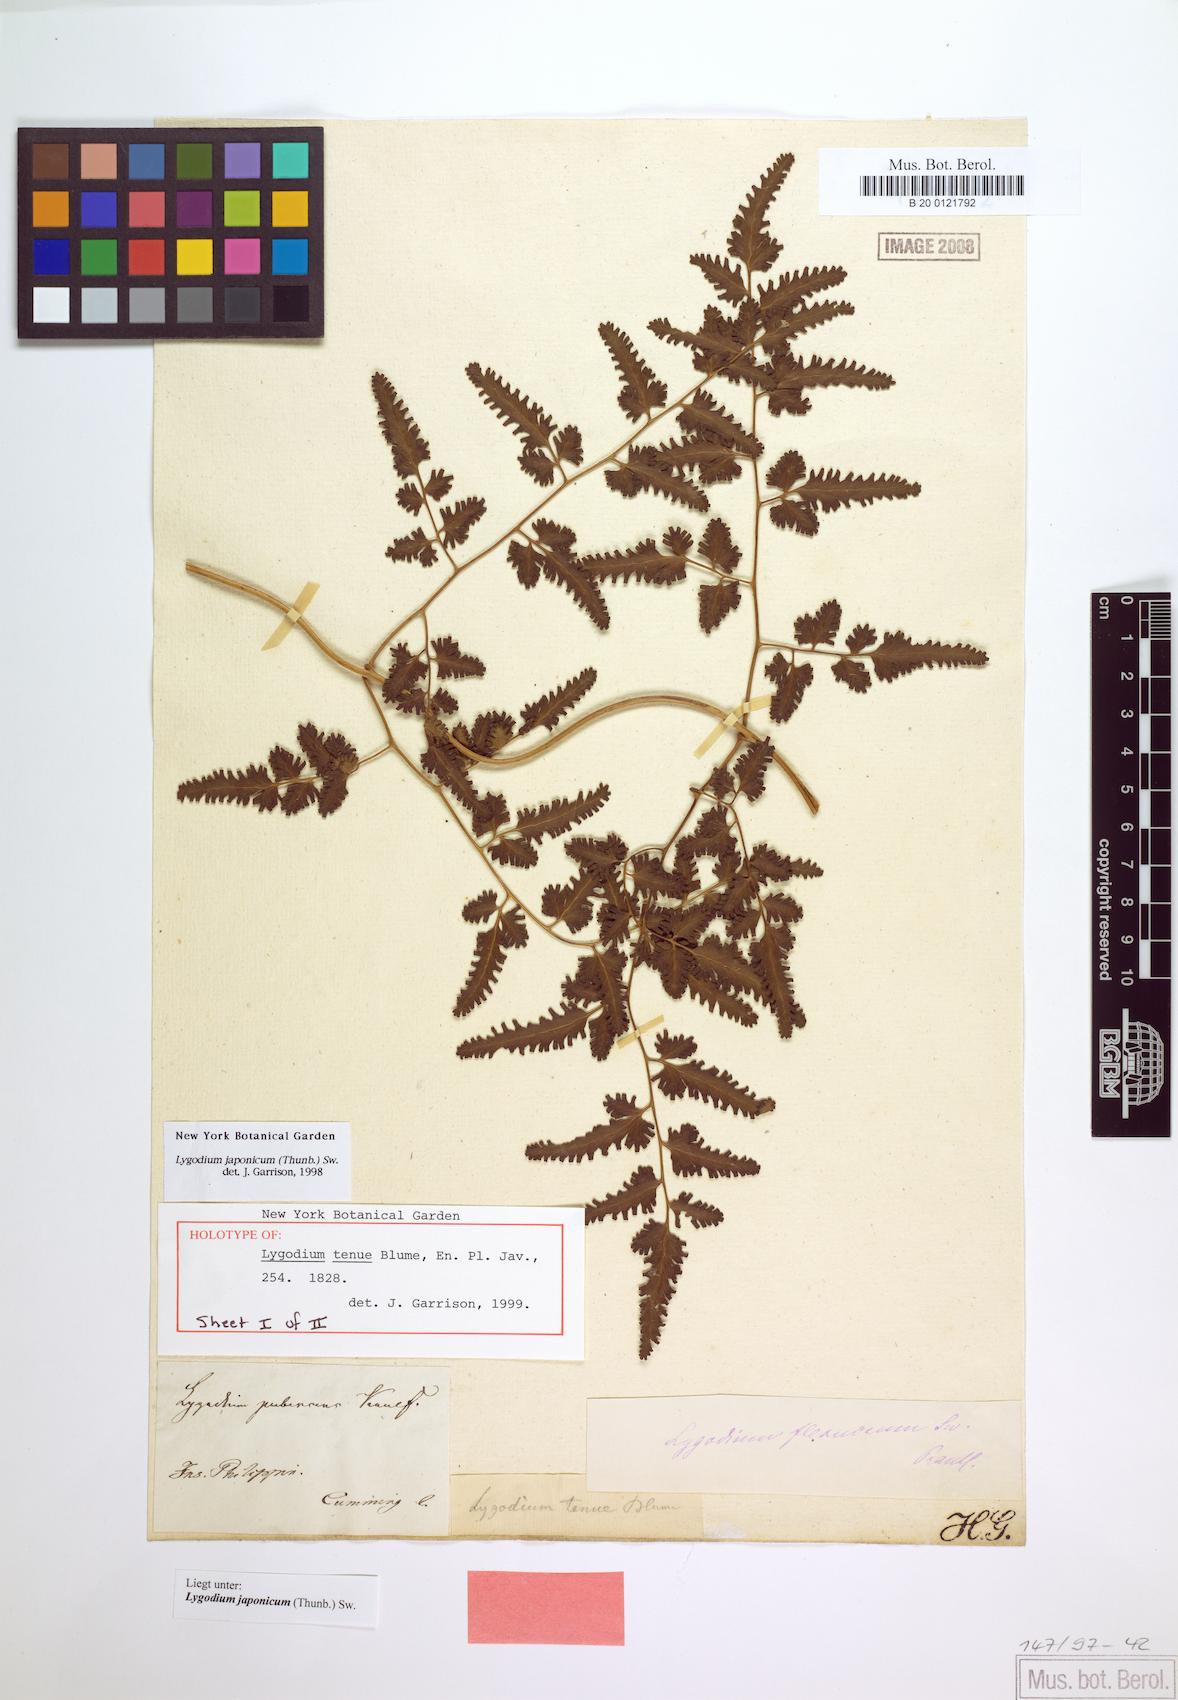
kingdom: Plantae
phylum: Tracheophyta
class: Polypodiopsida
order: Schizaeales
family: Lygodiaceae
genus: Lygodium
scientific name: Lygodium japonicum
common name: Japanese climbing fern
